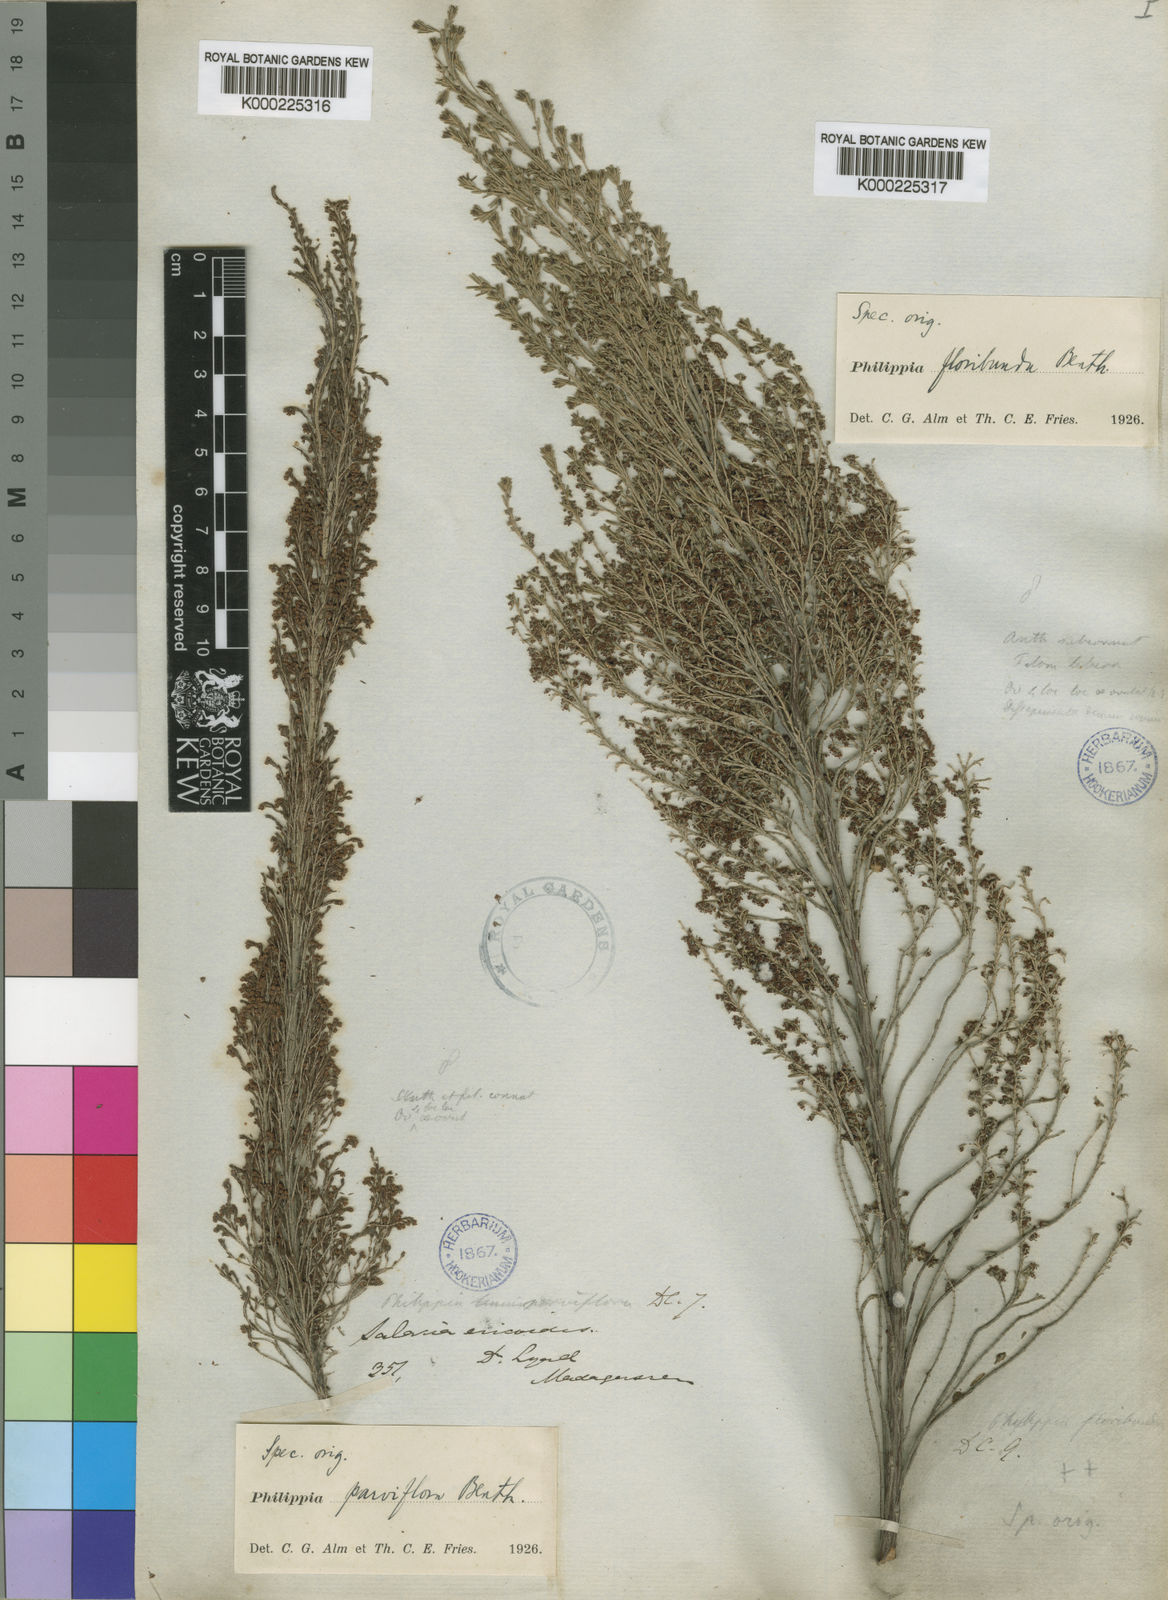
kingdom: Plantae
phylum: Tracheophyta
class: Magnoliopsida
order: Ericales
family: Ericaceae
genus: Erica
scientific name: Erica baroniana
